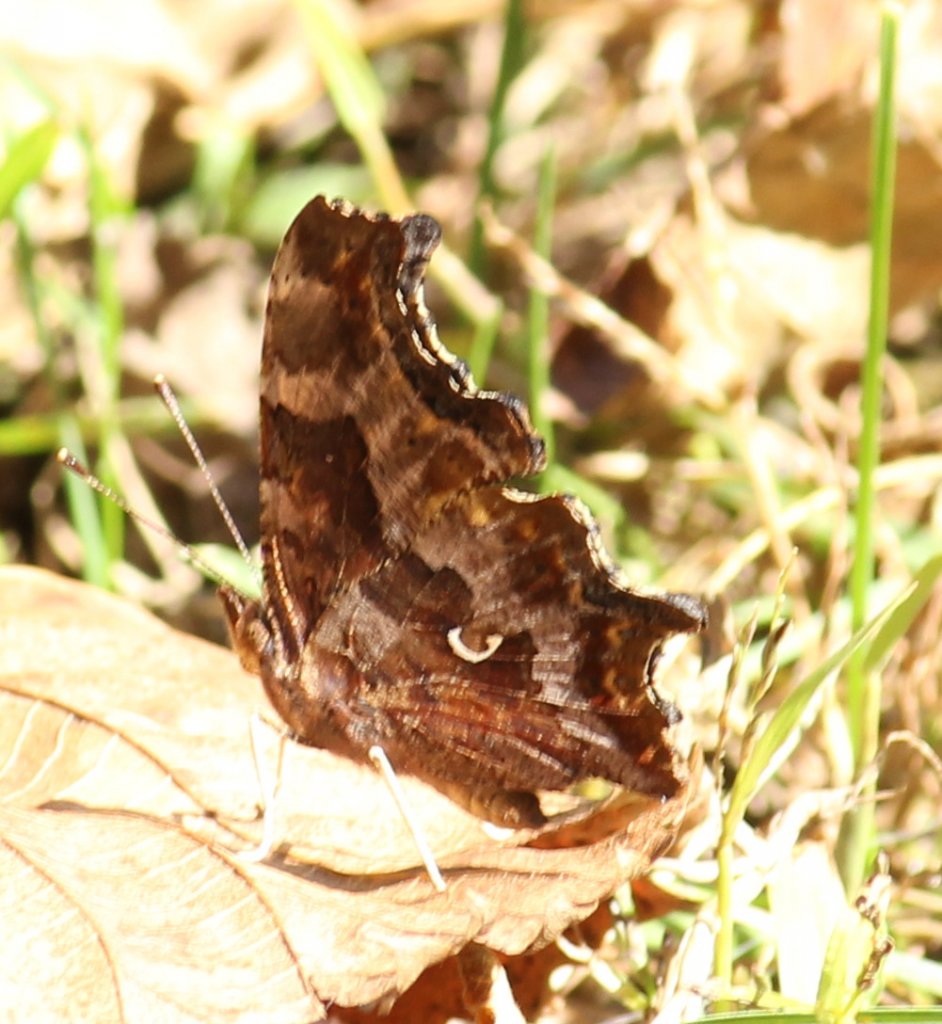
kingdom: Animalia
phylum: Arthropoda
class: Insecta
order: Lepidoptera
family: Nymphalidae
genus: Polygonia
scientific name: Polygonia comma
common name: Eastern Comma
